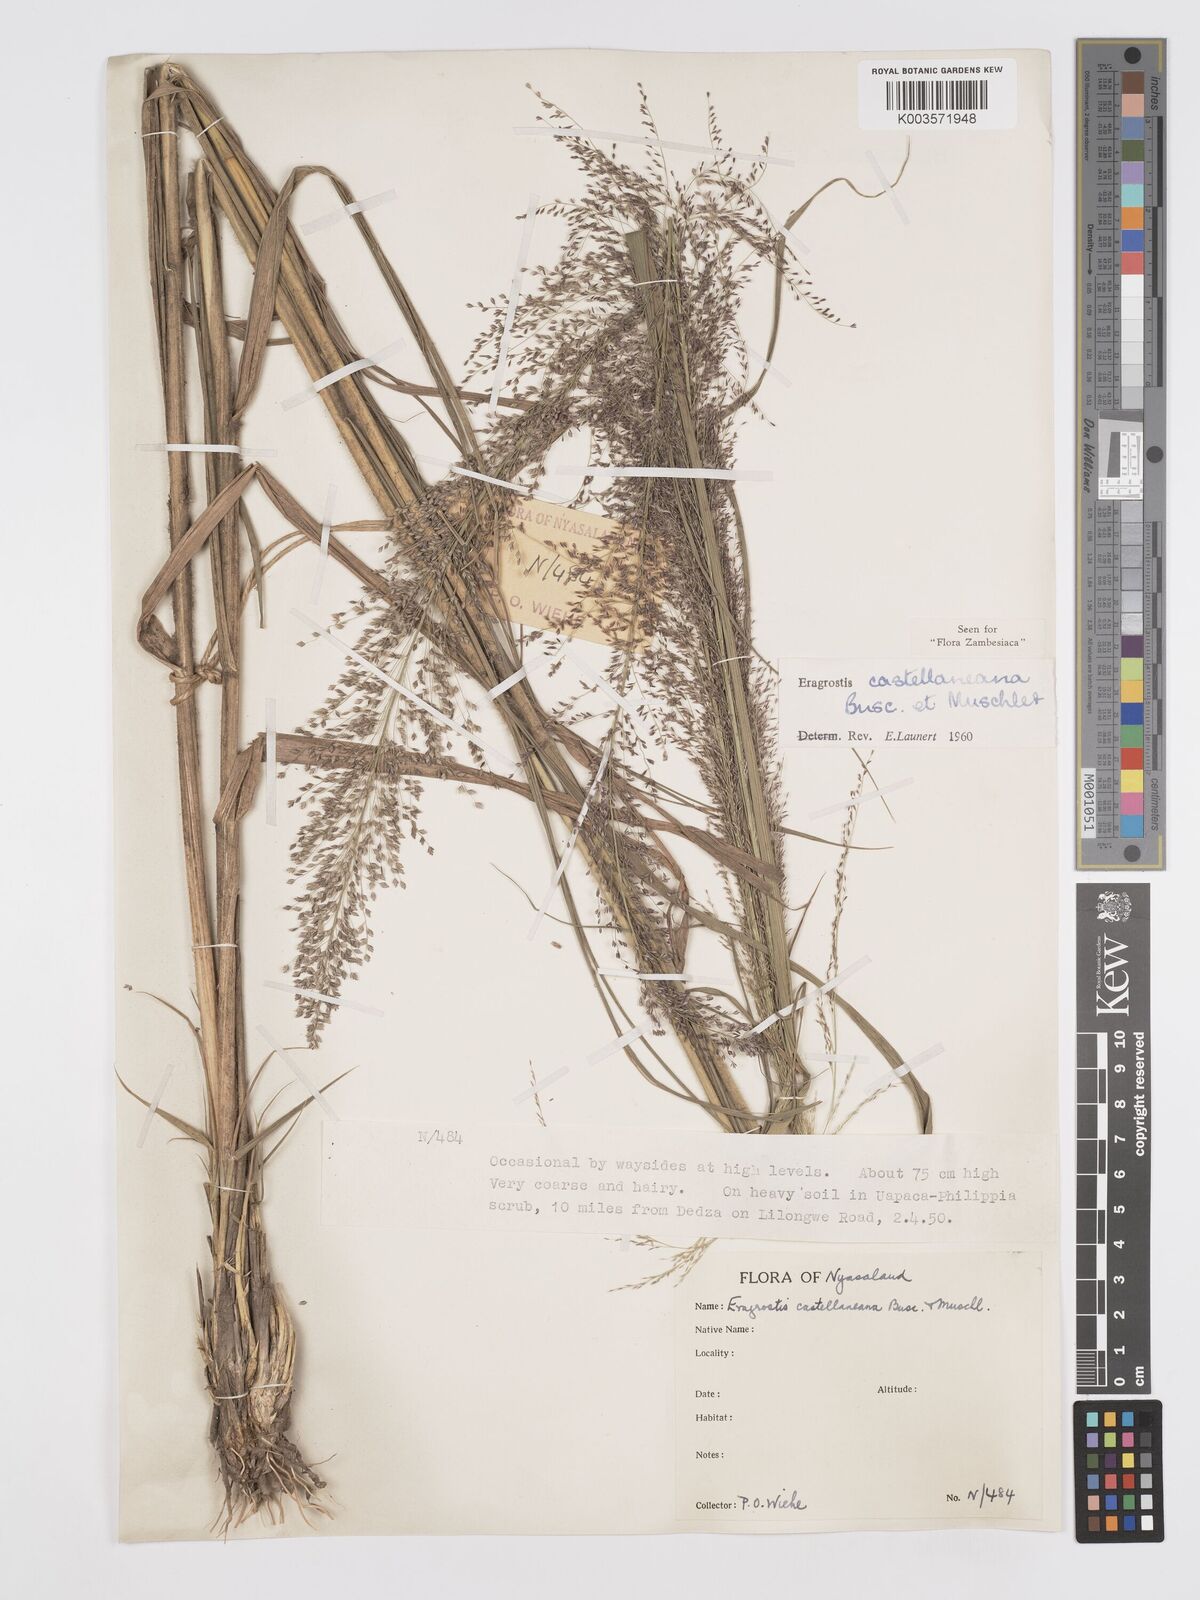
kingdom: Plantae
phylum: Tracheophyta
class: Liliopsida
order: Poales
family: Poaceae
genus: Eragrostis
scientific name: Eragrostis castellaneana
